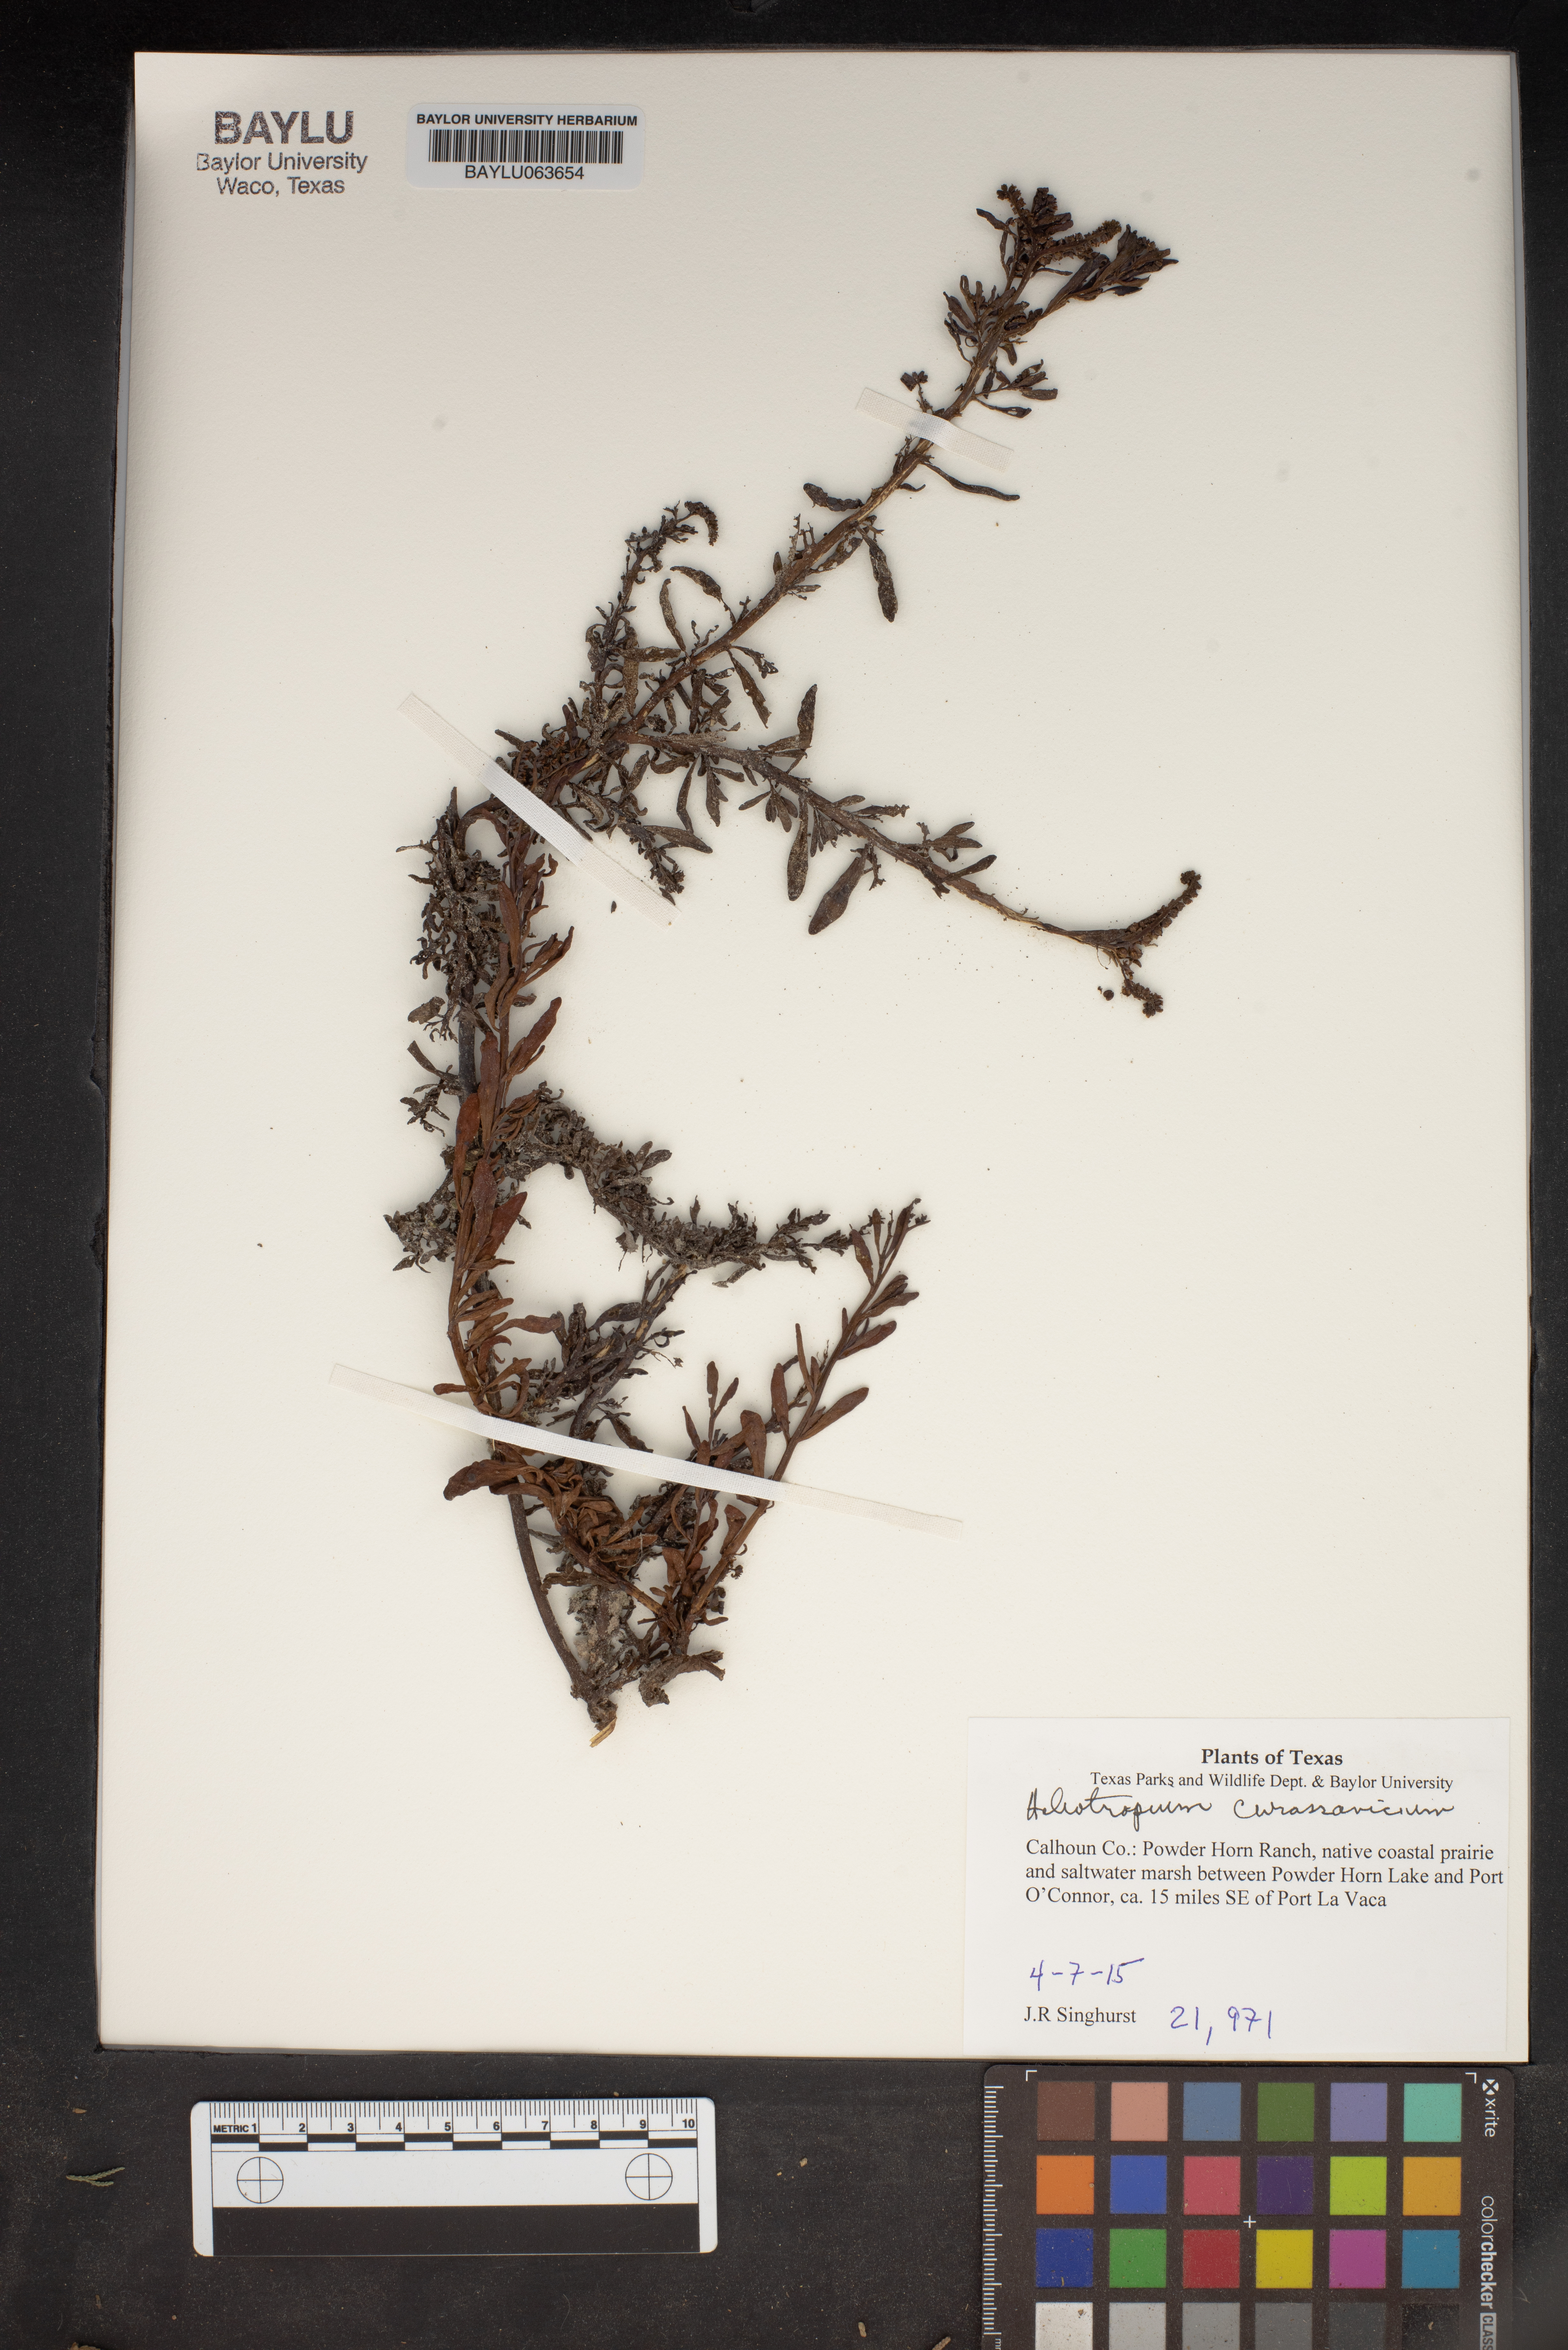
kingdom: Plantae
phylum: Tracheophyta
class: Magnoliopsida
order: Boraginales
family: Heliotropiaceae
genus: Heliotropium
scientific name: Heliotropium curassavicum
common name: Seaside heliotrope
